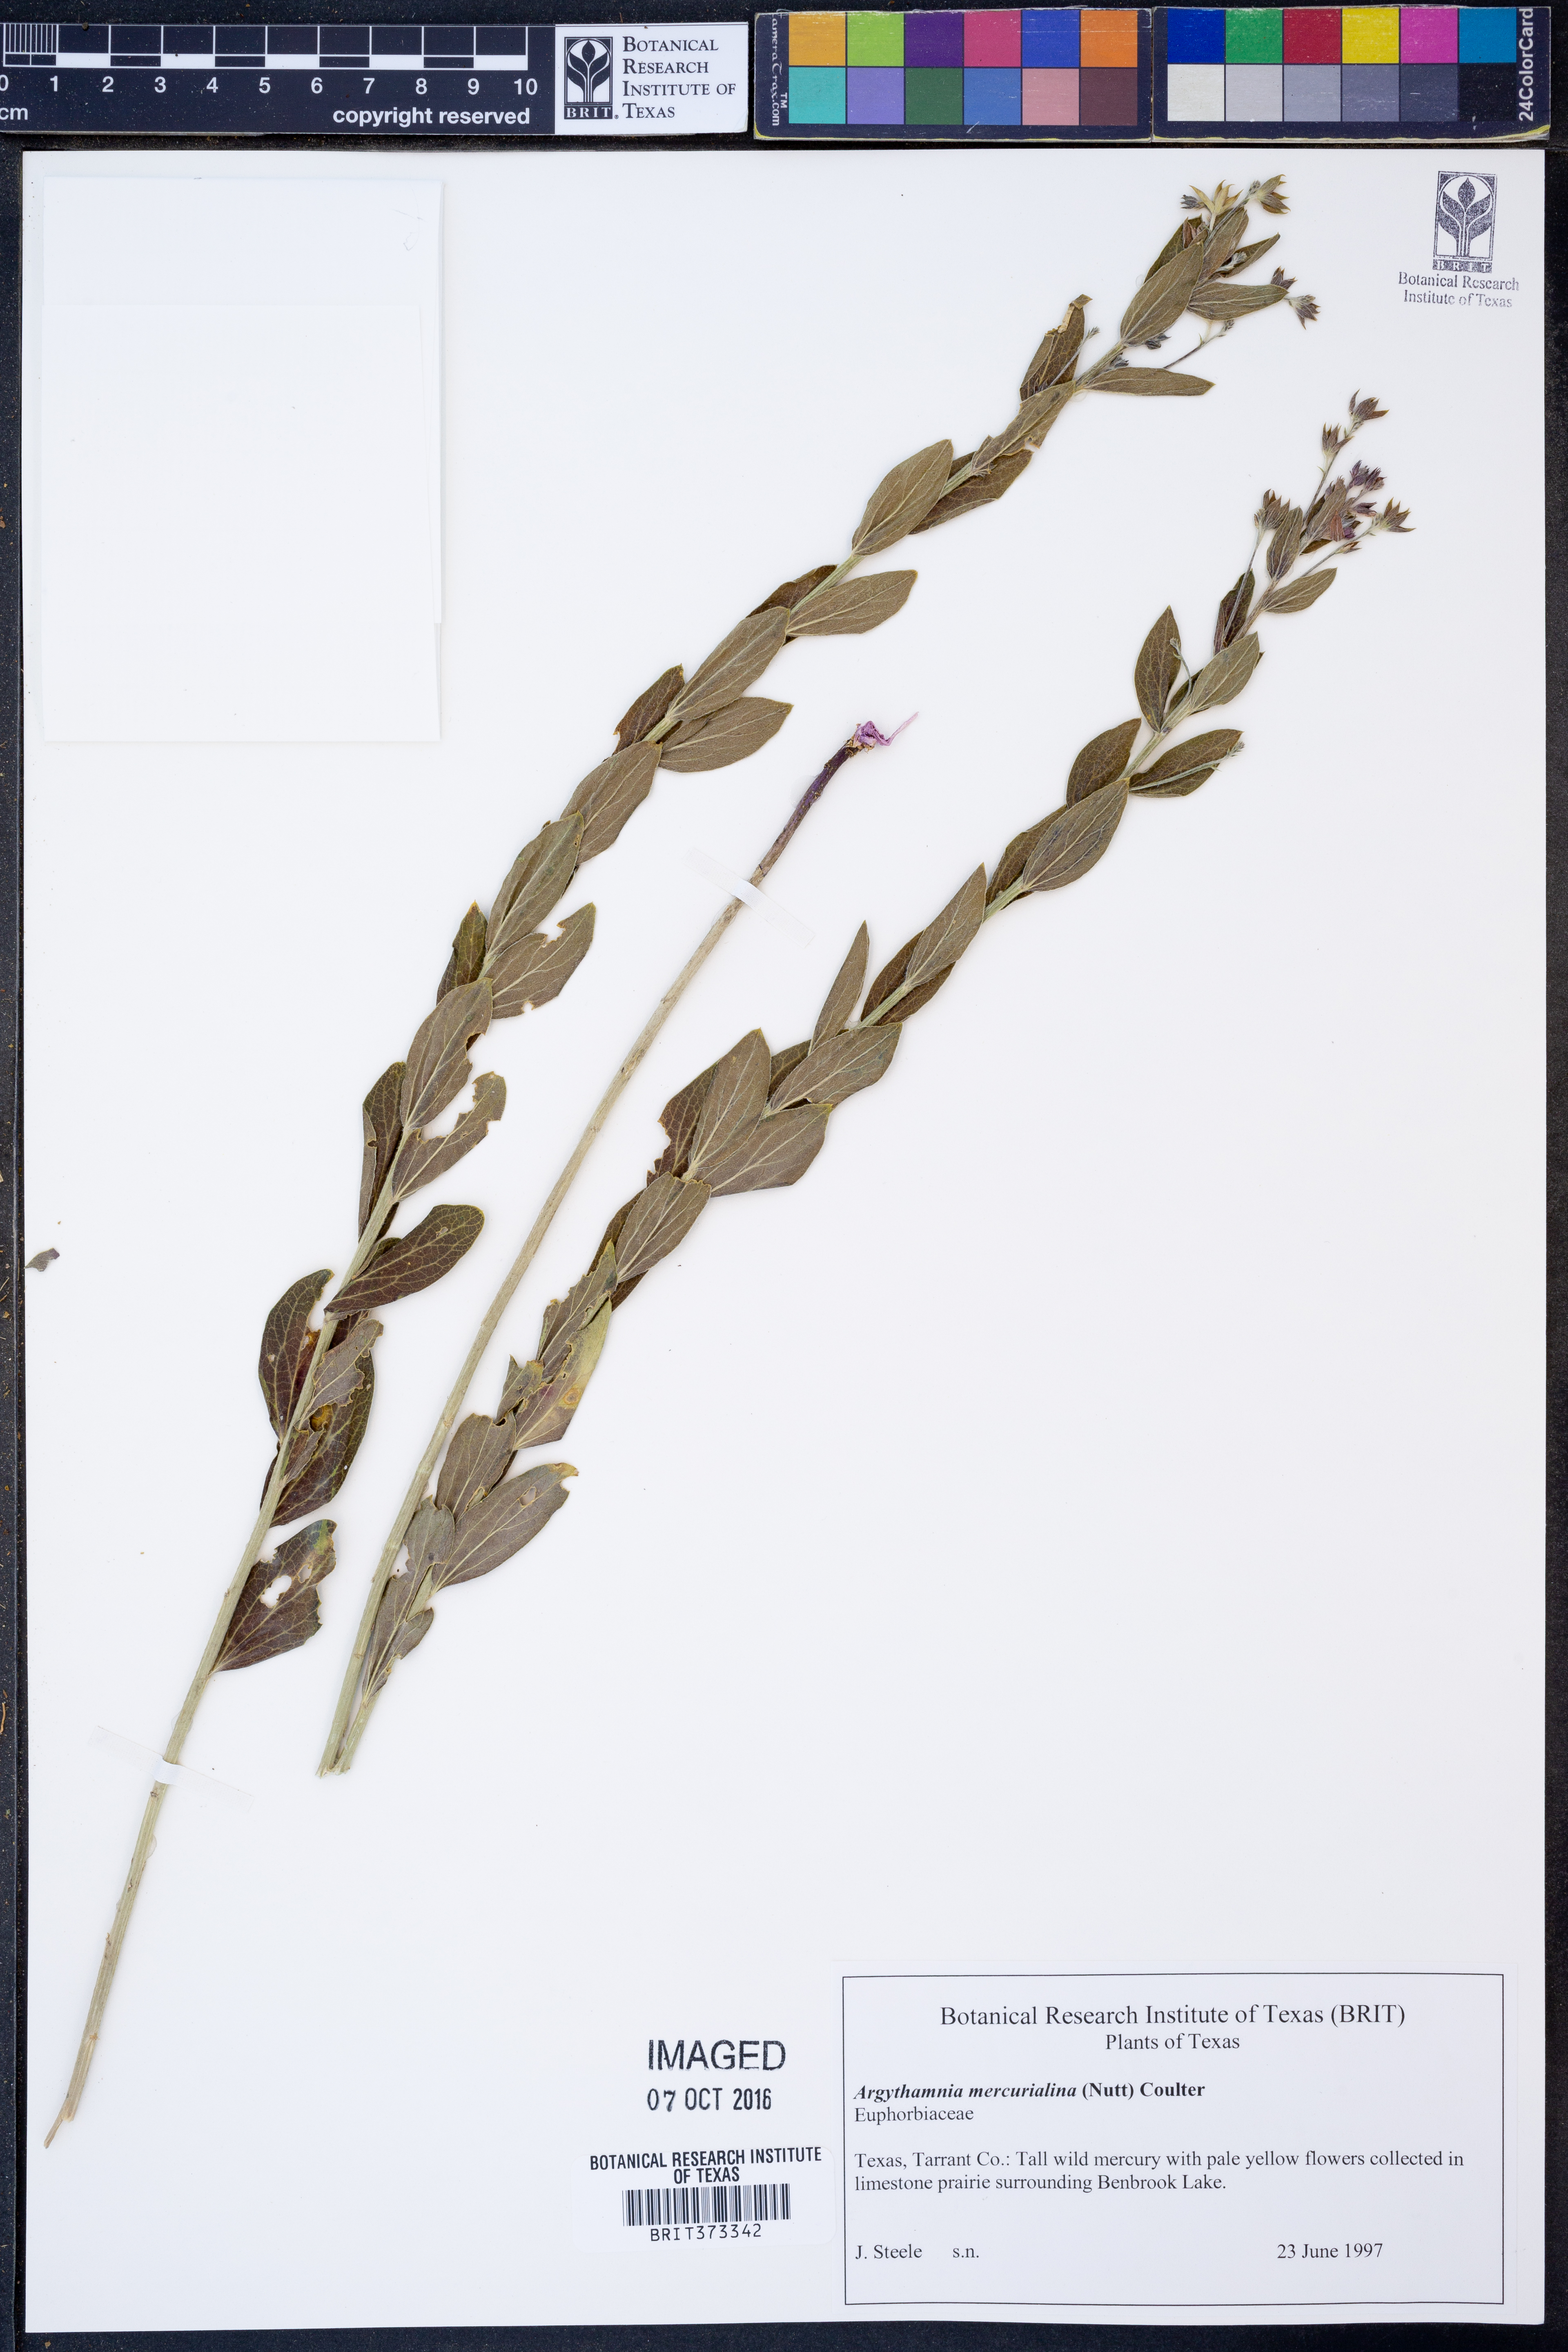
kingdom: Plantae
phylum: Tracheophyta
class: Magnoliopsida
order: Malpighiales
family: Euphorbiaceae
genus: Ditaxis
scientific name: Ditaxis mercurialina
